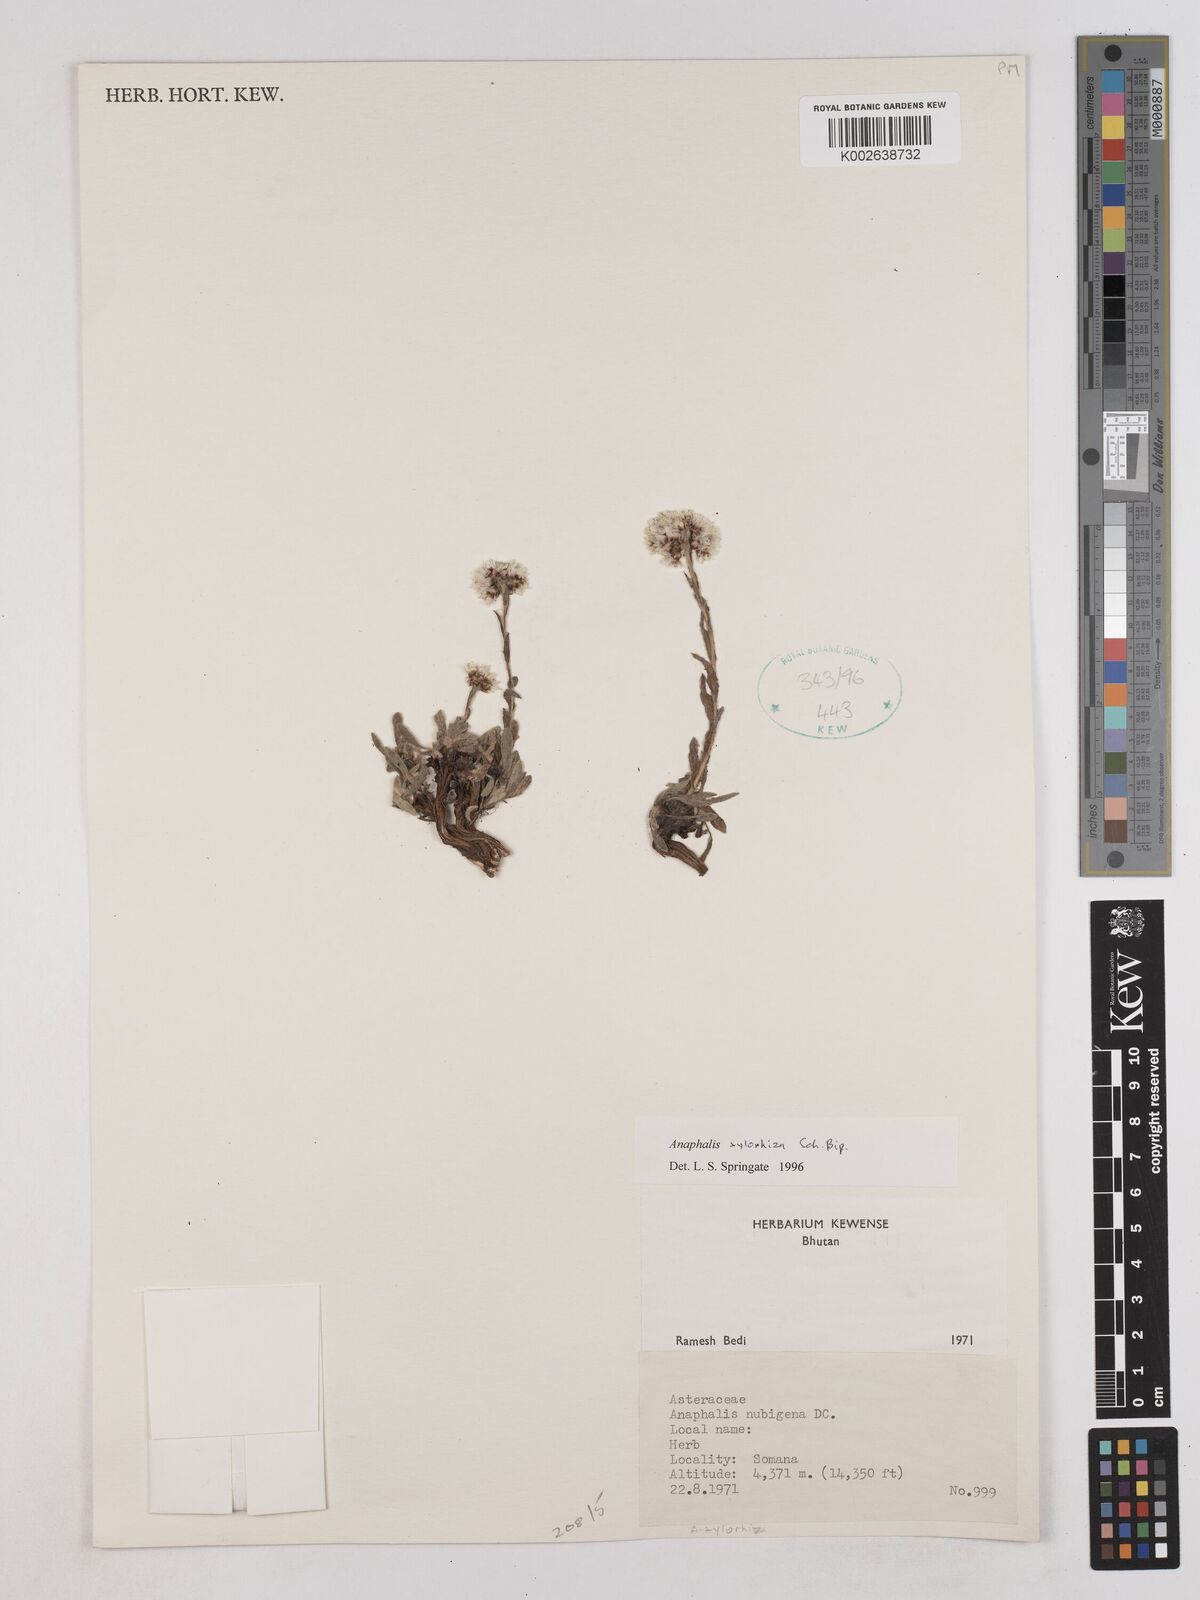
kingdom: Plantae
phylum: Tracheophyta
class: Magnoliopsida
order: Asterales
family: Asteraceae
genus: Anaphalis
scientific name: Anaphalis xylorhiza
